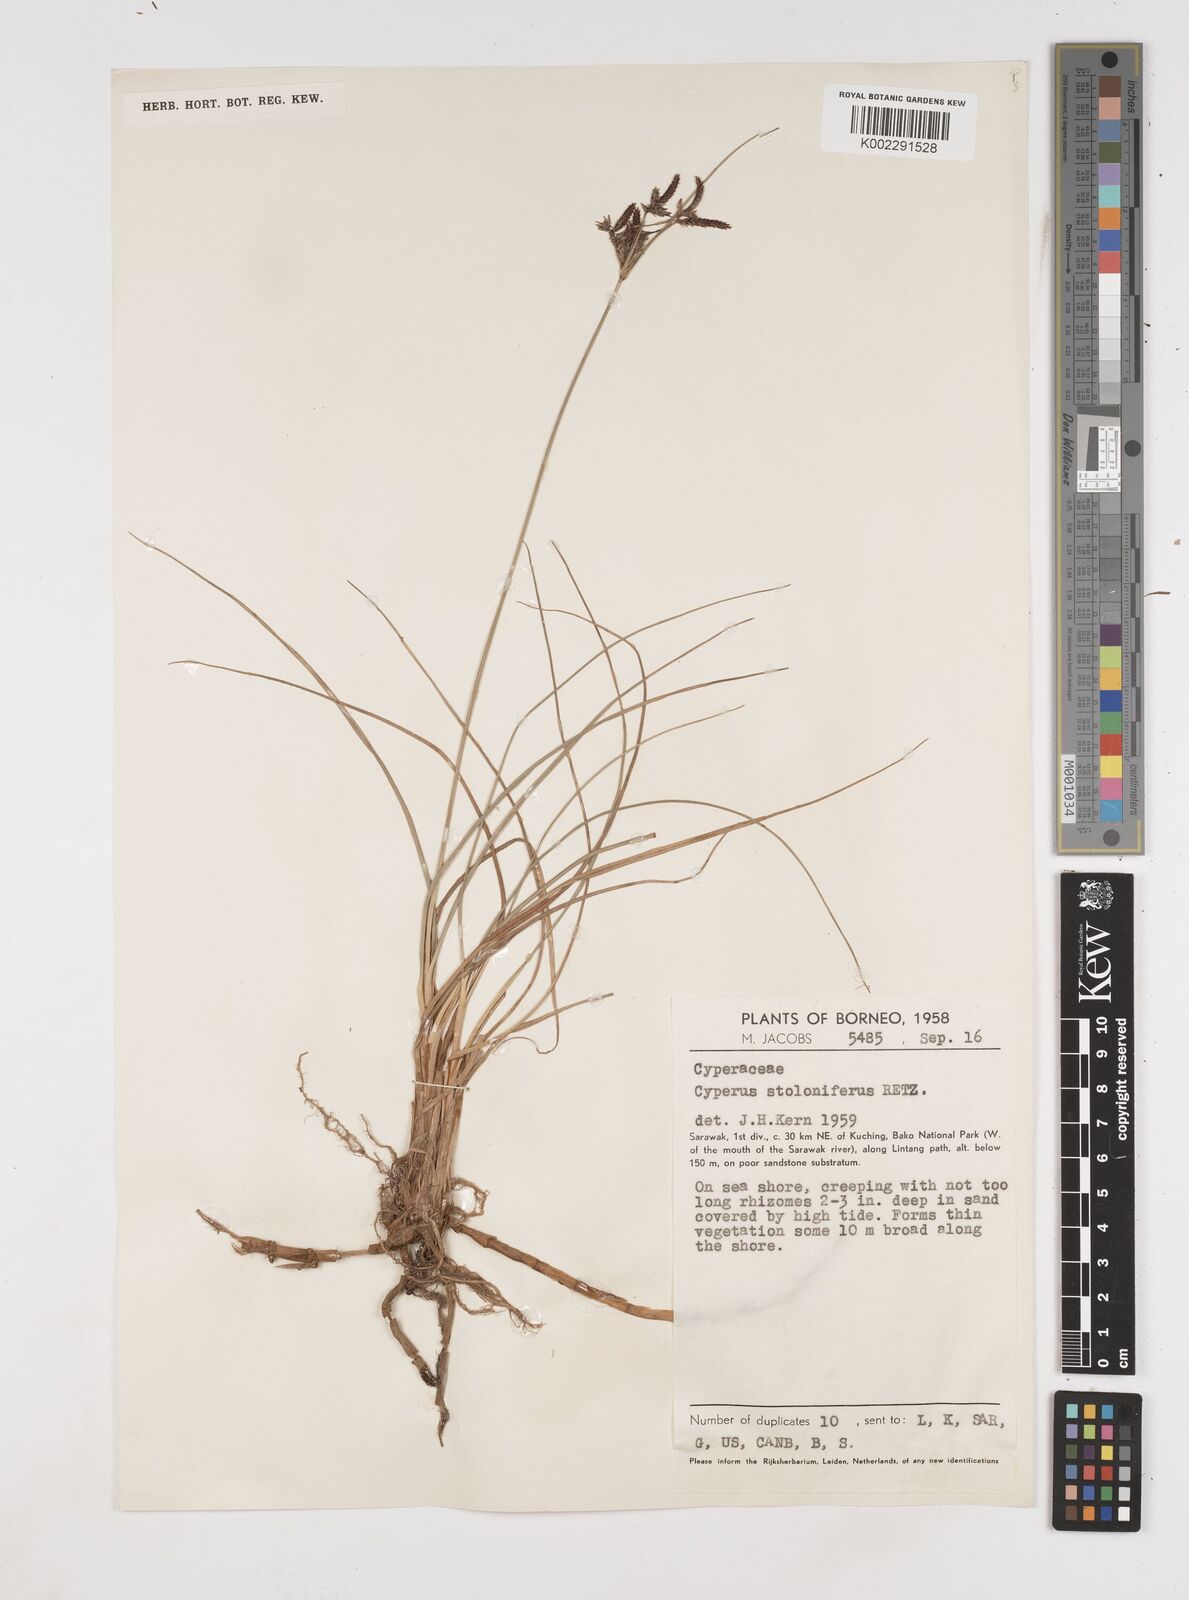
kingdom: Plantae
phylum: Tracheophyta
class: Liliopsida
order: Poales
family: Cyperaceae
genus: Cyperus
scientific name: Cyperus bulbosus
